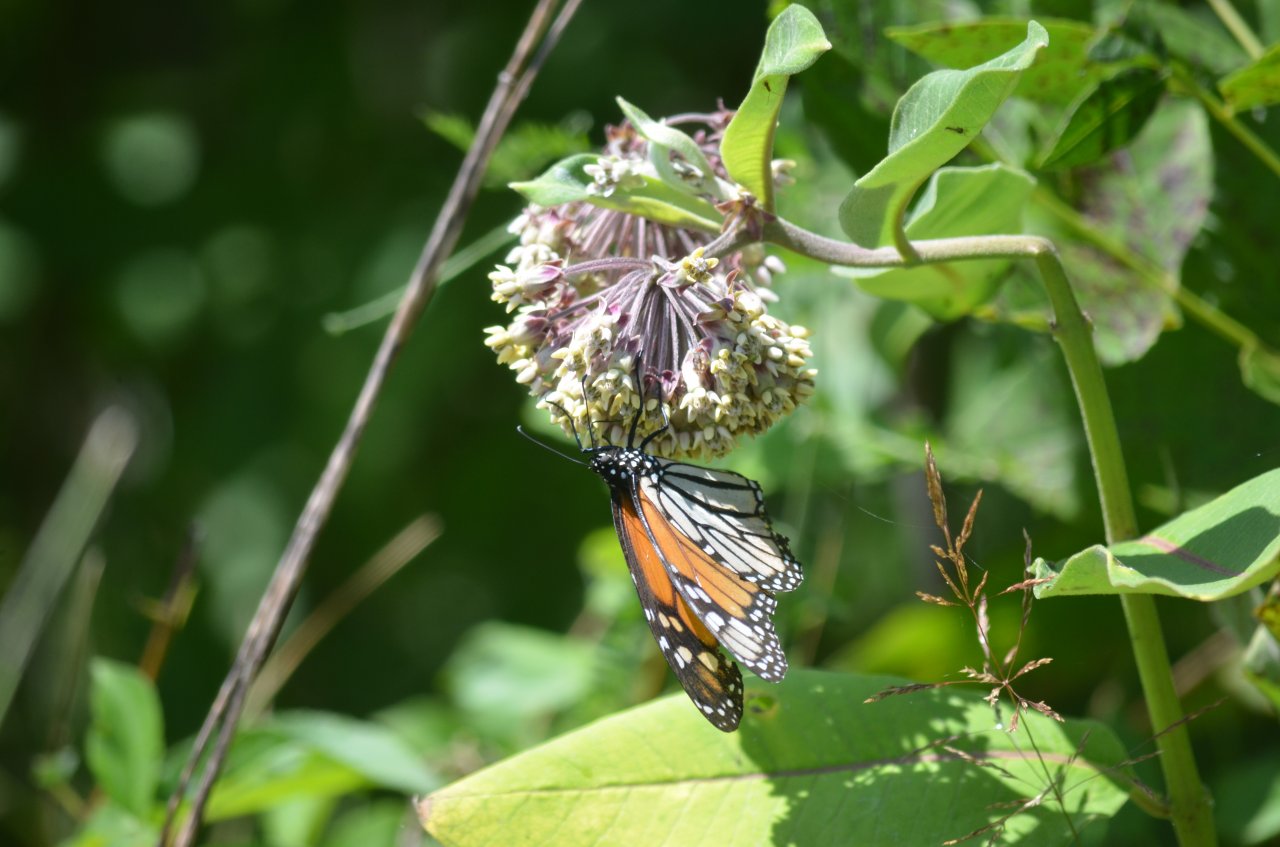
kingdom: Animalia
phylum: Arthropoda
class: Insecta
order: Lepidoptera
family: Nymphalidae
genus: Danaus
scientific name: Danaus plexippus
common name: Monarch
